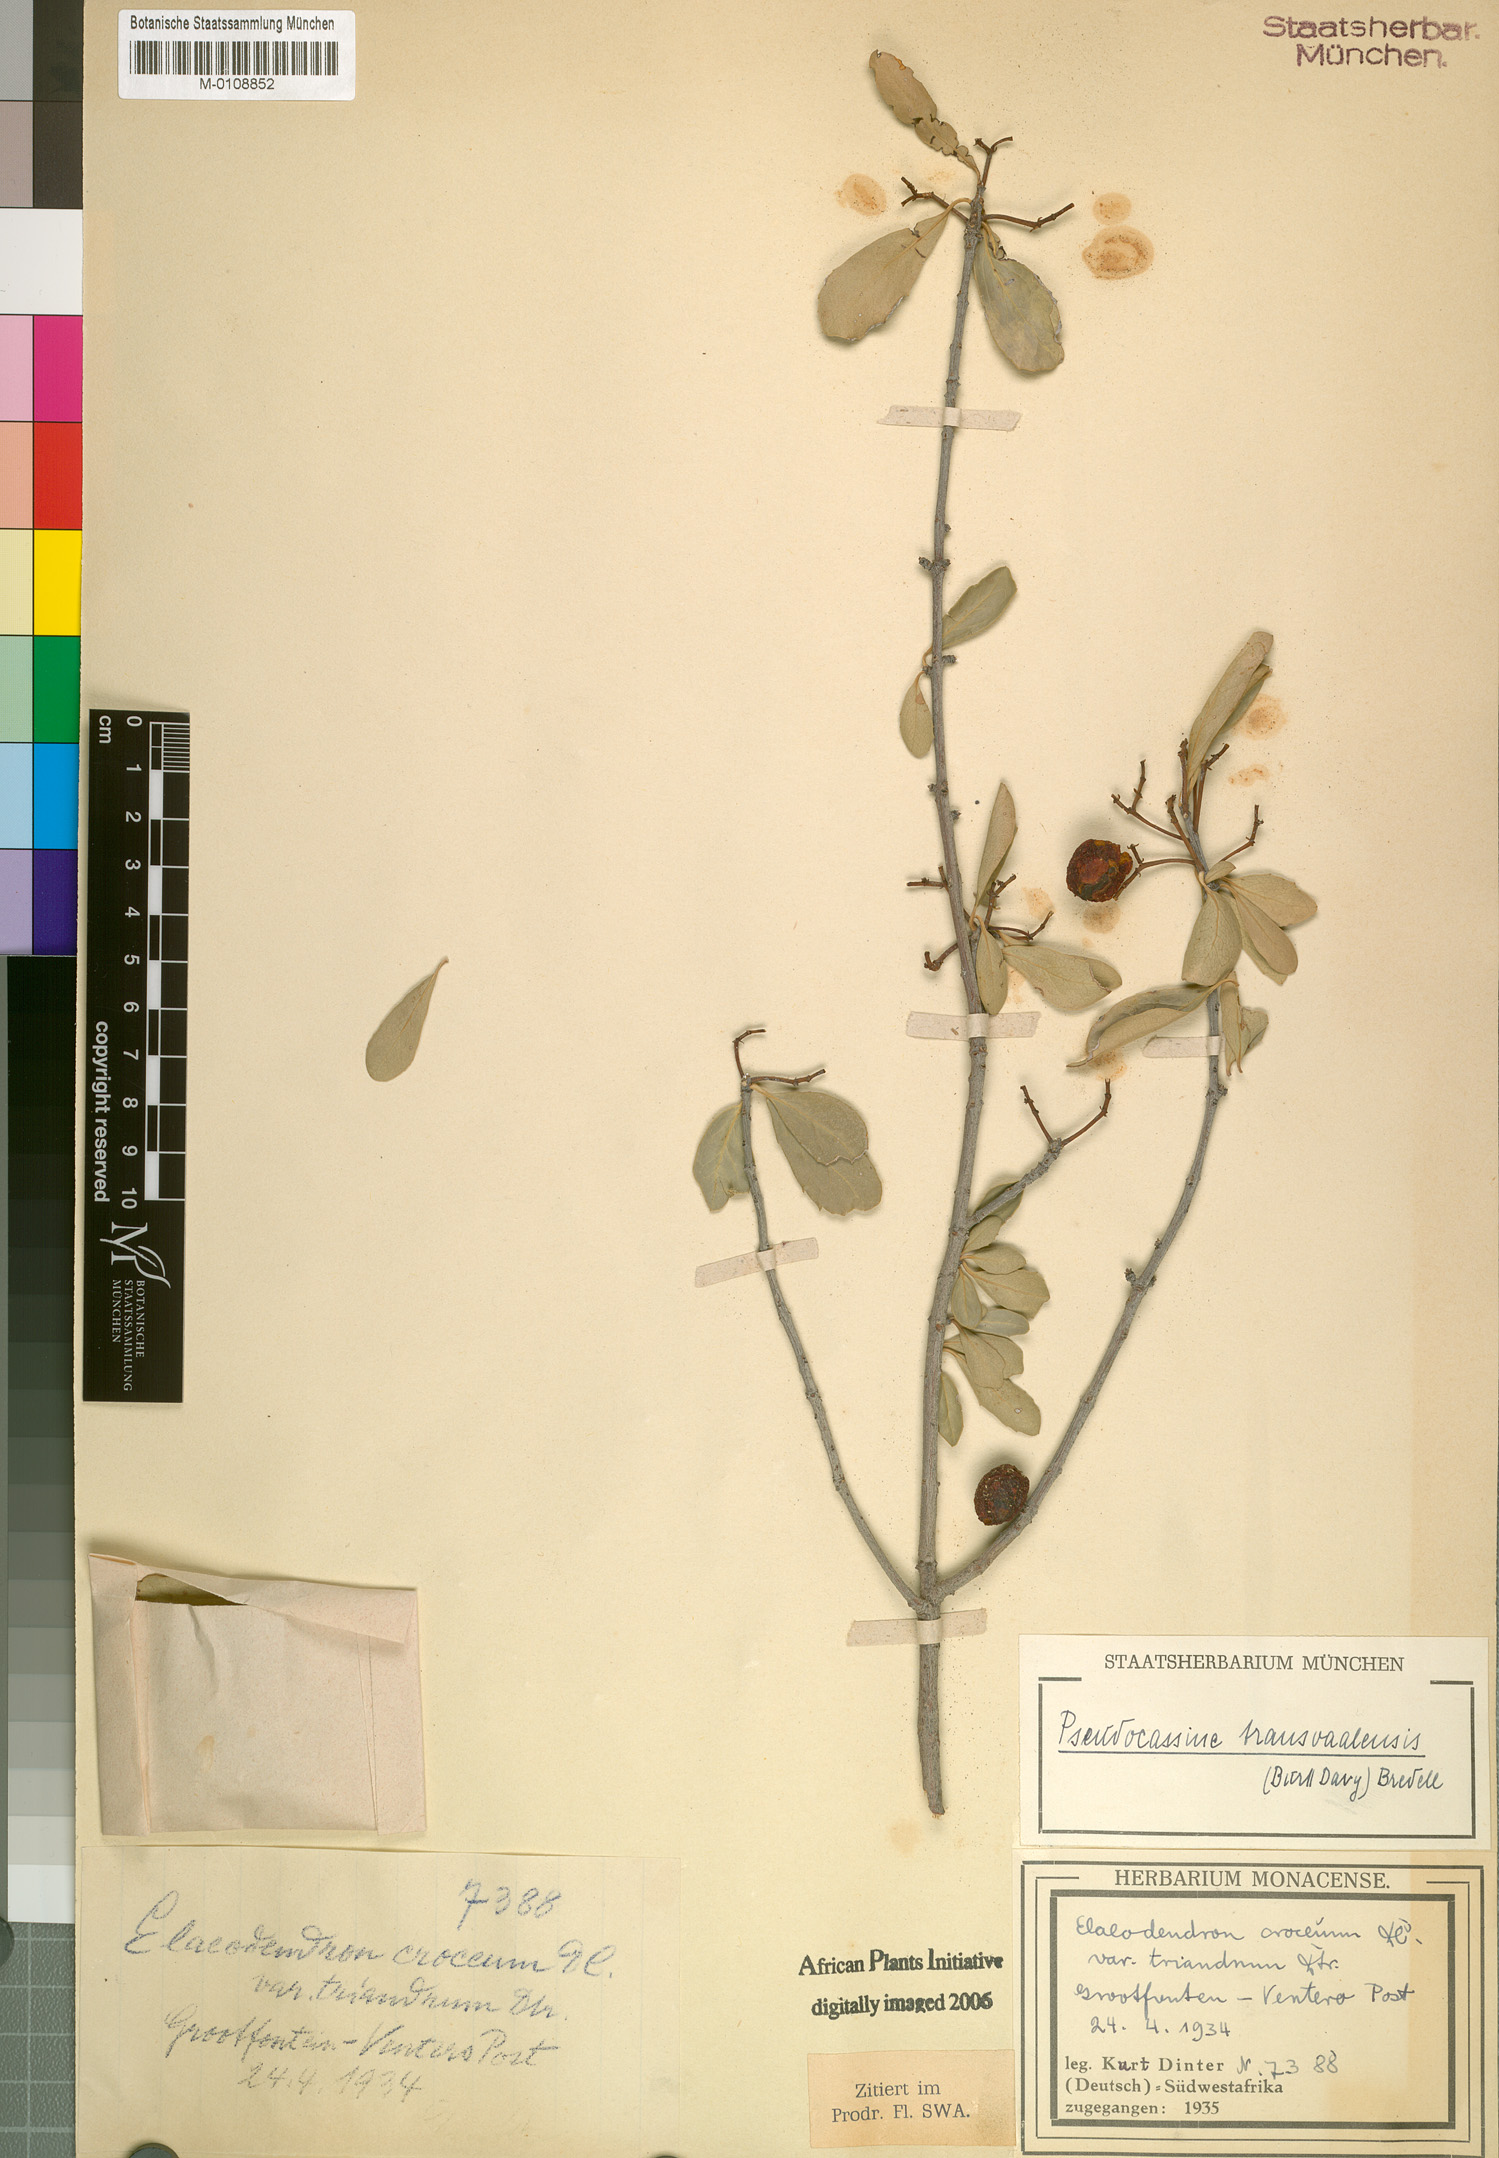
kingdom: Plantae
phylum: Tracheophyta
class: Magnoliopsida
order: Celastrales
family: Celastraceae
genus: Elaeodendron
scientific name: Elaeodendron transvaalense
